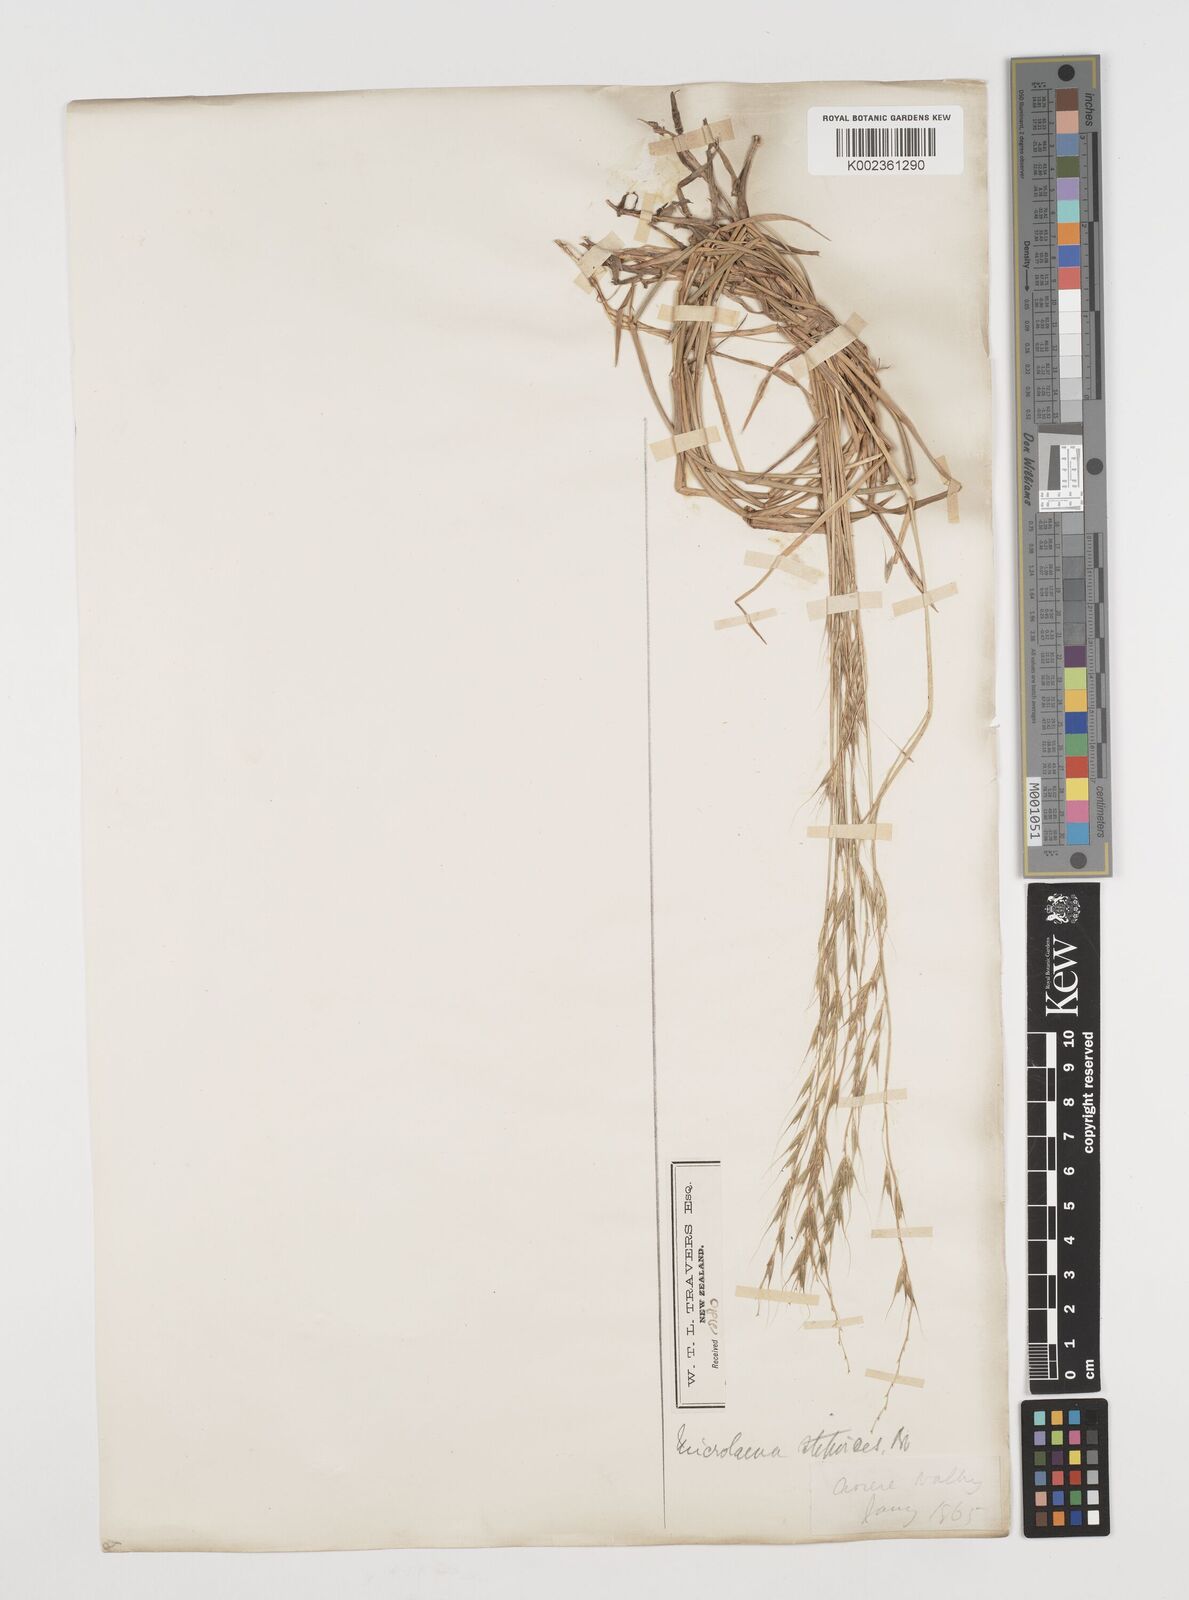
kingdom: Plantae
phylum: Tracheophyta
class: Liliopsida
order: Poales
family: Poaceae
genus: Microlaena
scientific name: Microlaena stipoides
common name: Meadow ricegrass
